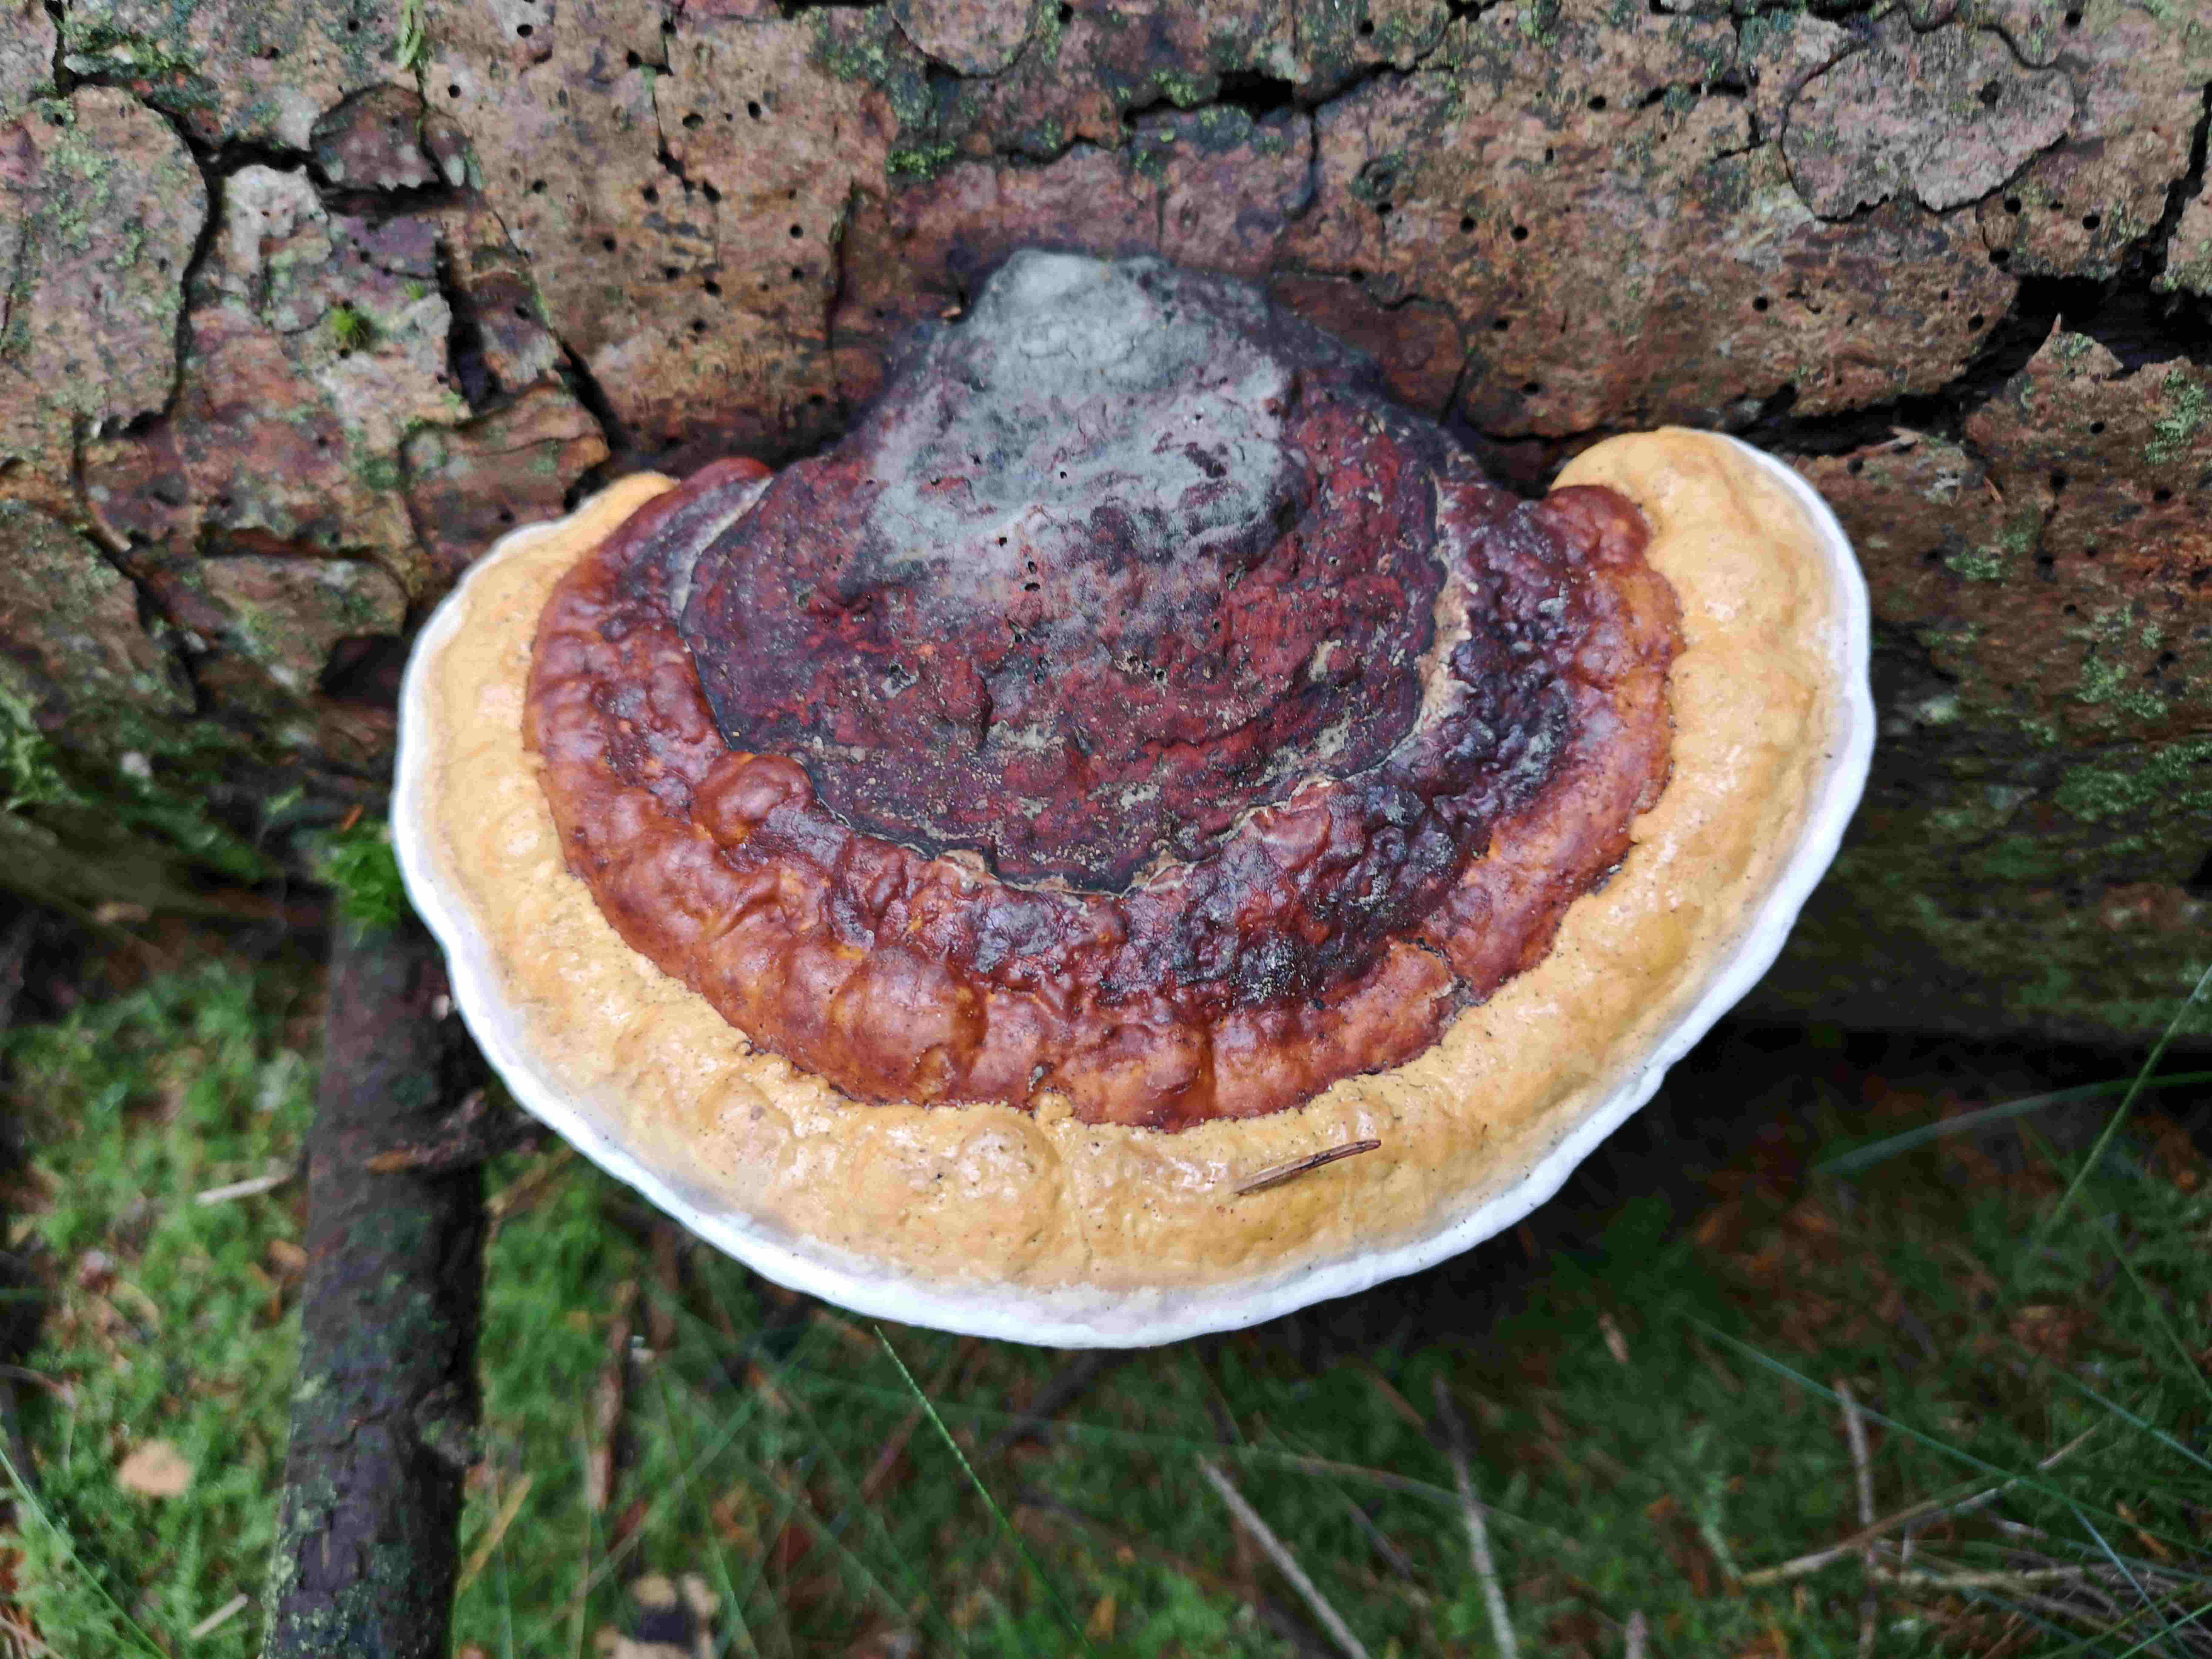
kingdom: Fungi
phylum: Basidiomycota
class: Agaricomycetes
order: Polyporales
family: Fomitopsidaceae
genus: Fomitopsis
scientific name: Fomitopsis pinicola
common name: randbæltet hovporesvamp
